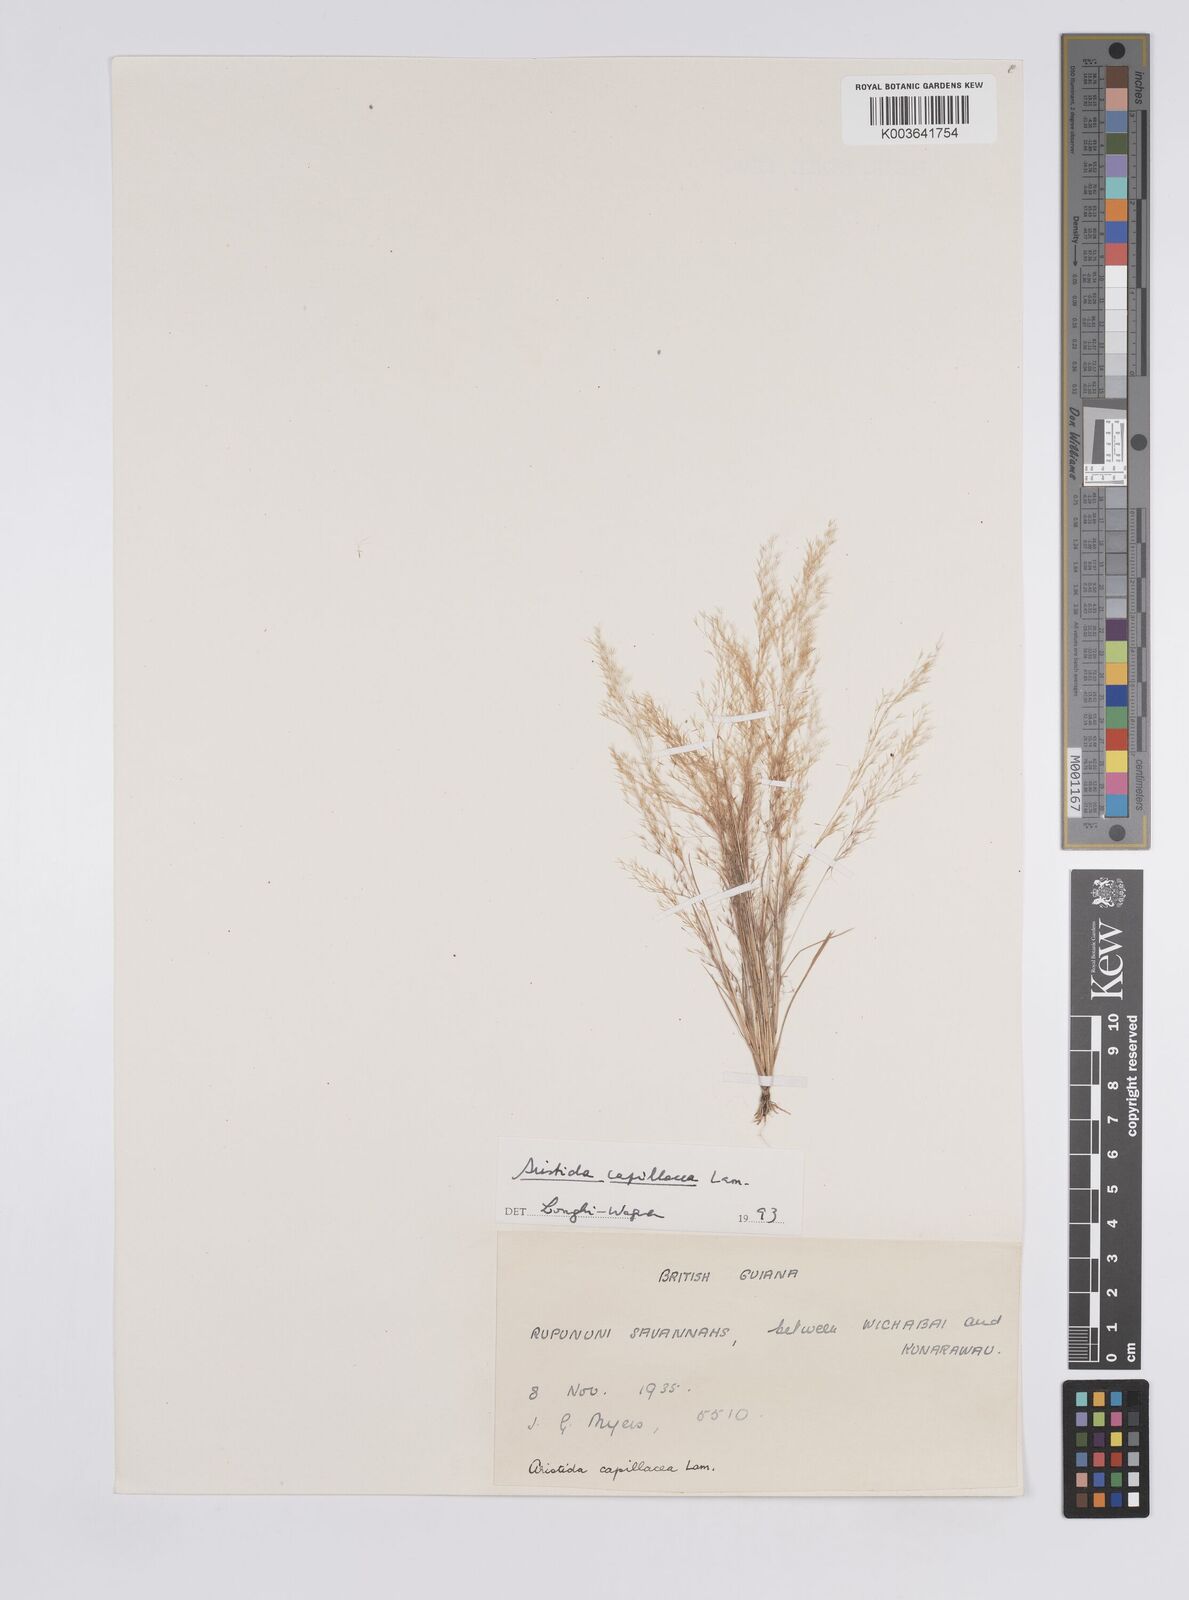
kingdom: Plantae
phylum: Tracheophyta
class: Liliopsida
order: Poales
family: Poaceae
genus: Aristida
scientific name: Aristida capillacea
